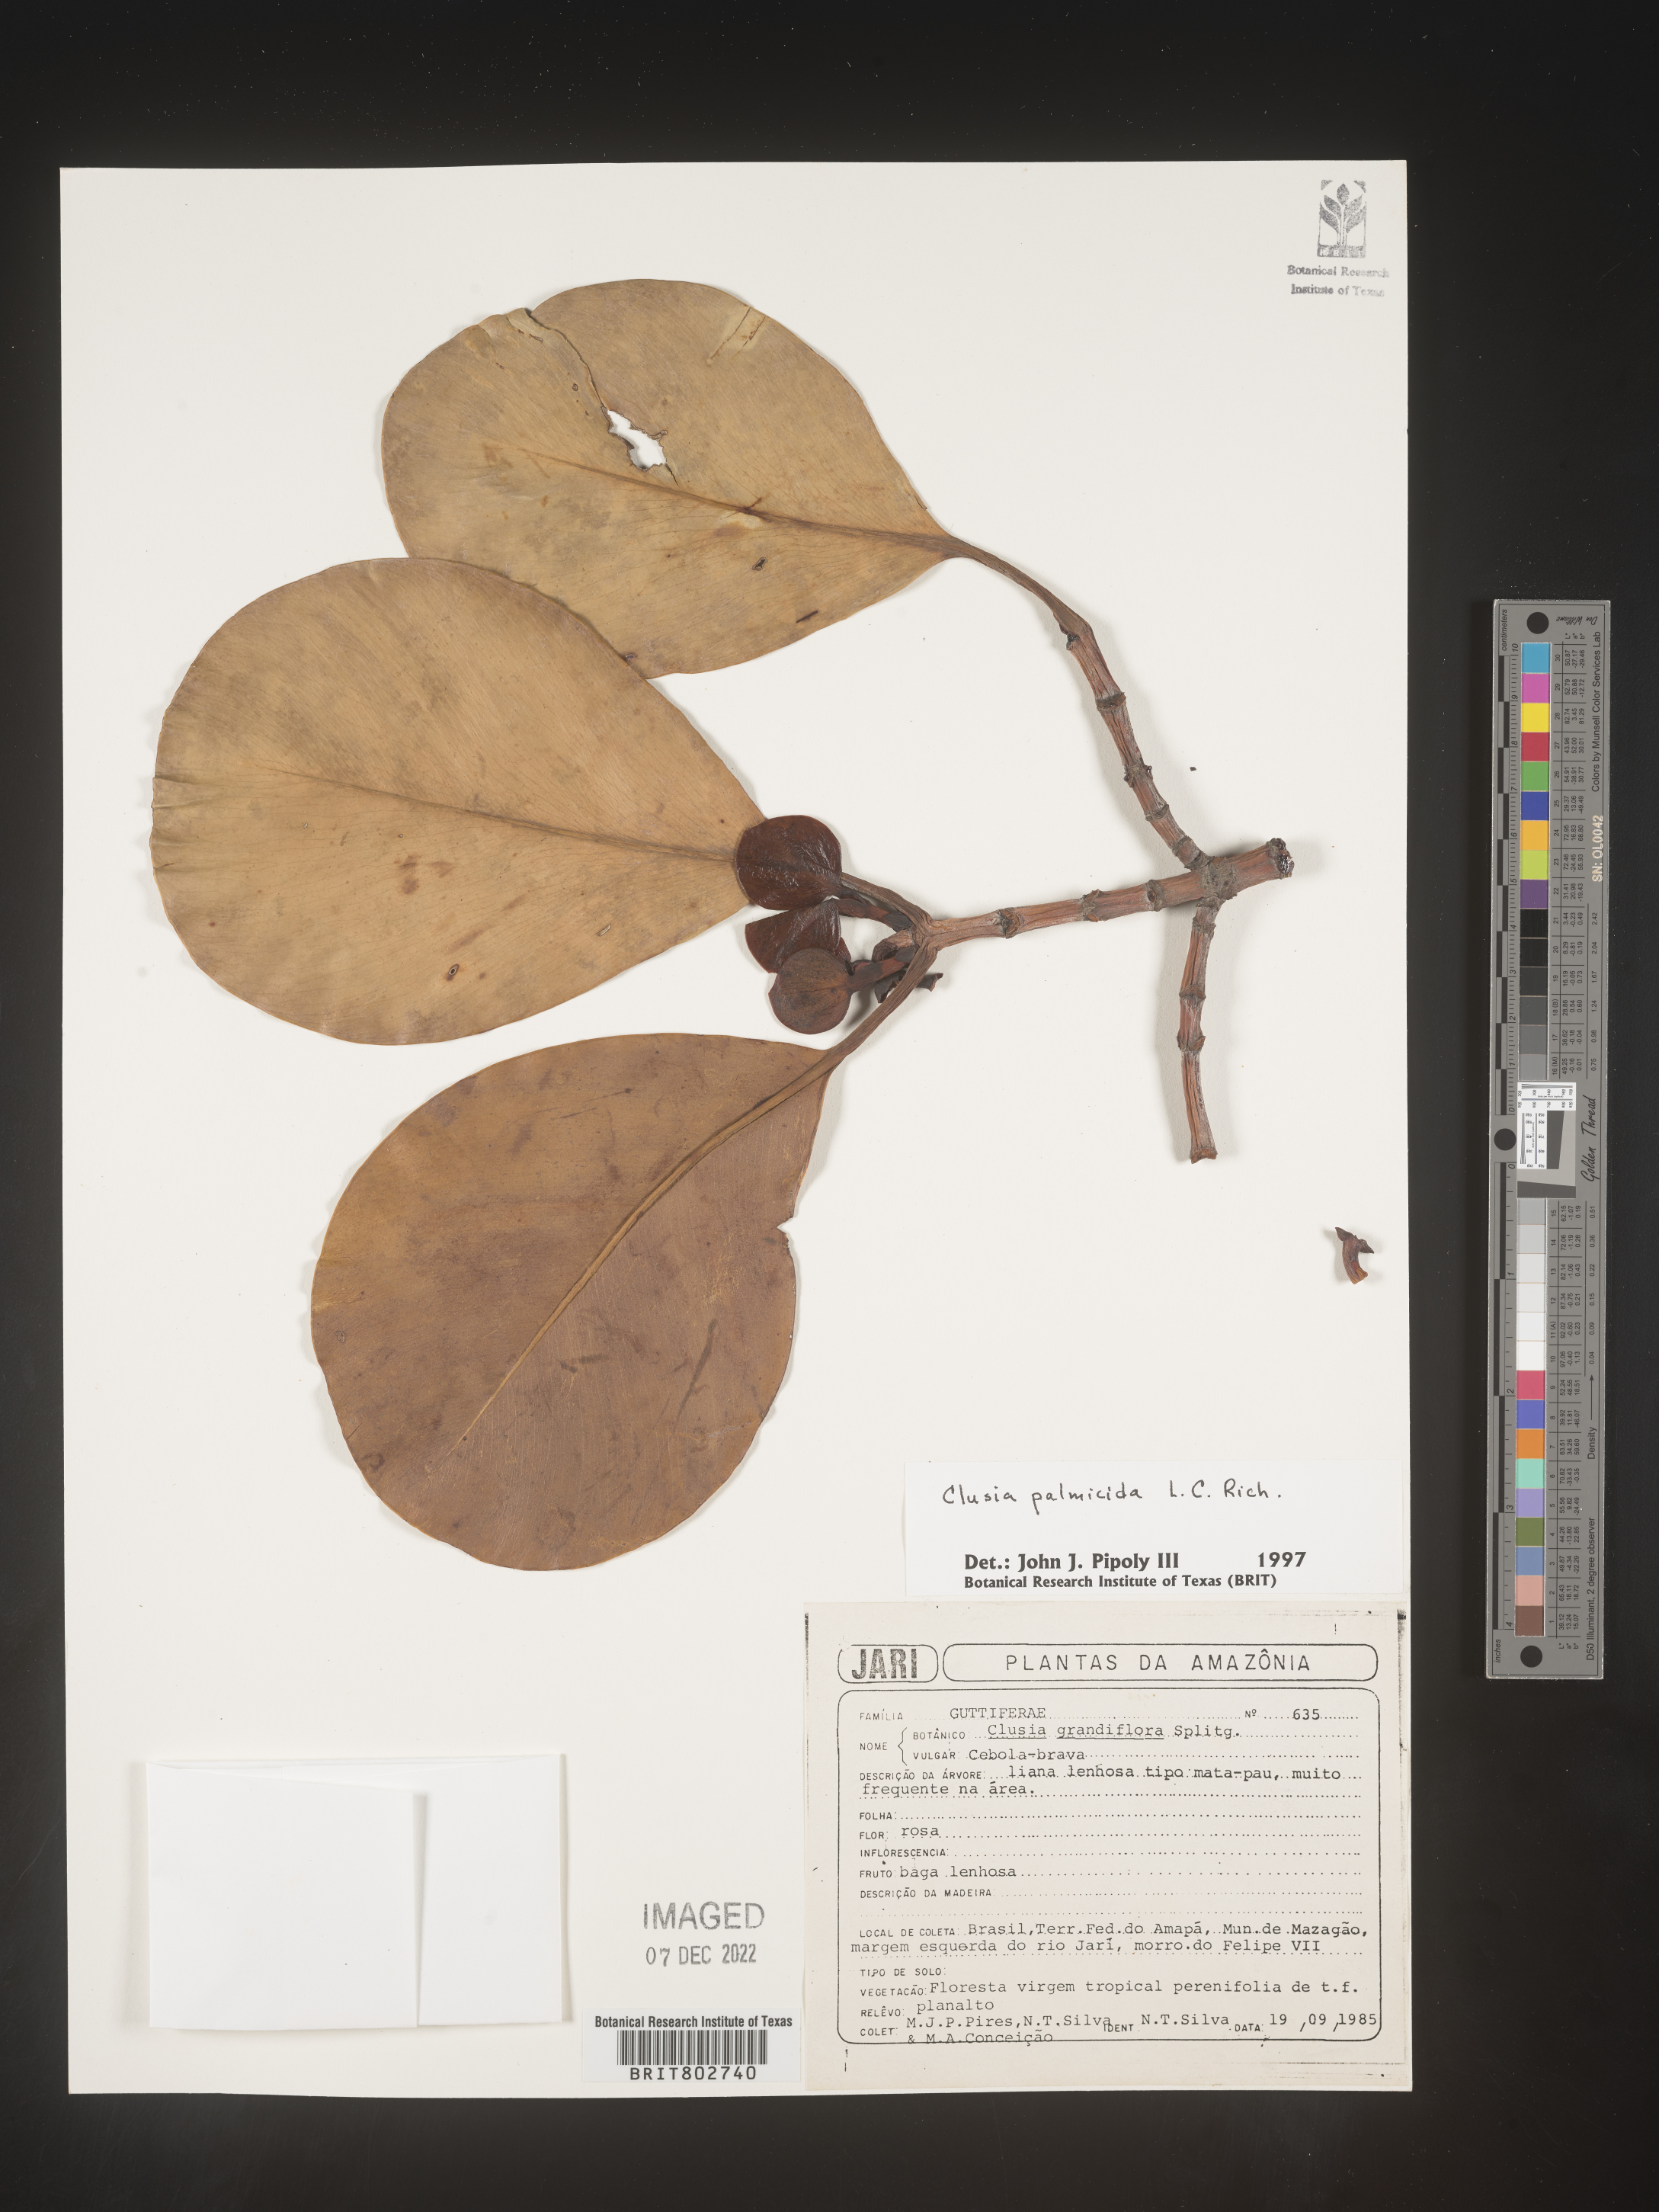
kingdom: Plantae
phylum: Tracheophyta
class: Magnoliopsida
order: Malpighiales
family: Clusiaceae
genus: Clusia
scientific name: Clusia palmicida
